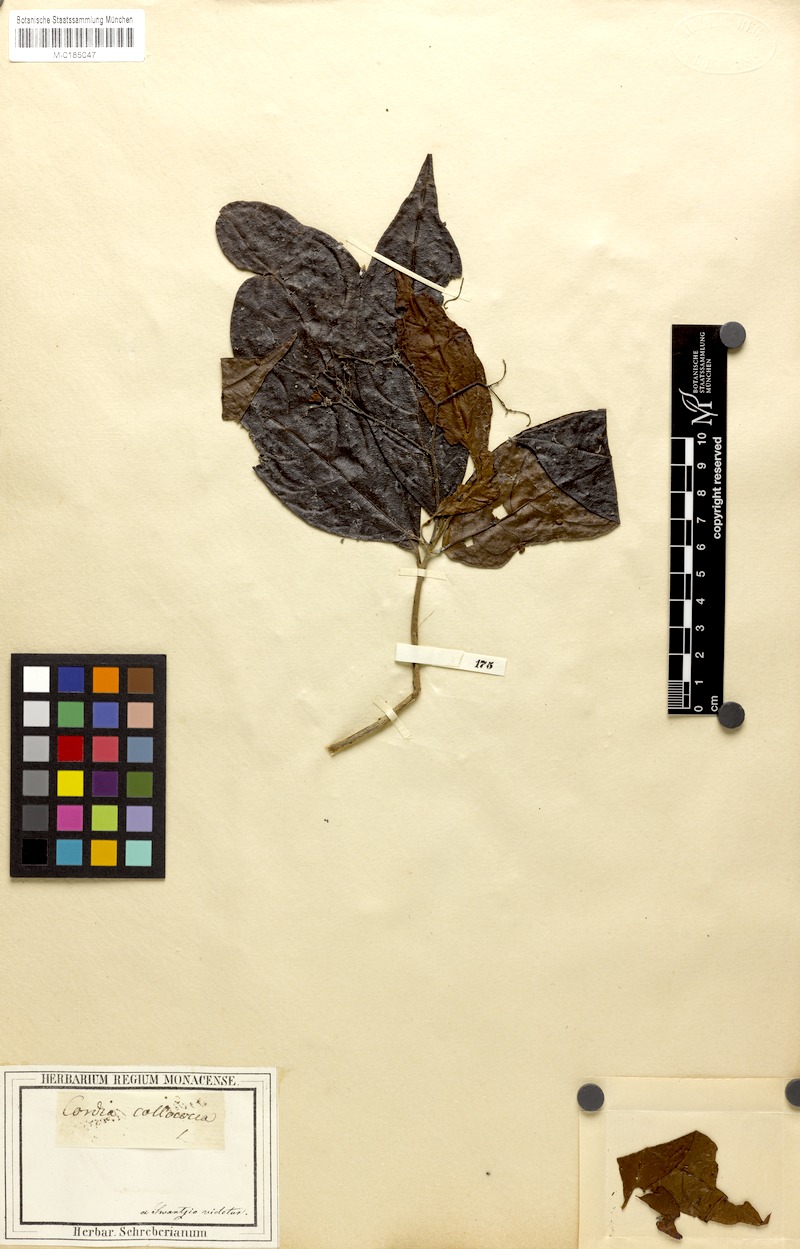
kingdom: Plantae
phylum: Tracheophyta
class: Magnoliopsida
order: Boraginales
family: Cordiaceae
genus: Cordia
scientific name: Cordia laevigata
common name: Clam cherry
